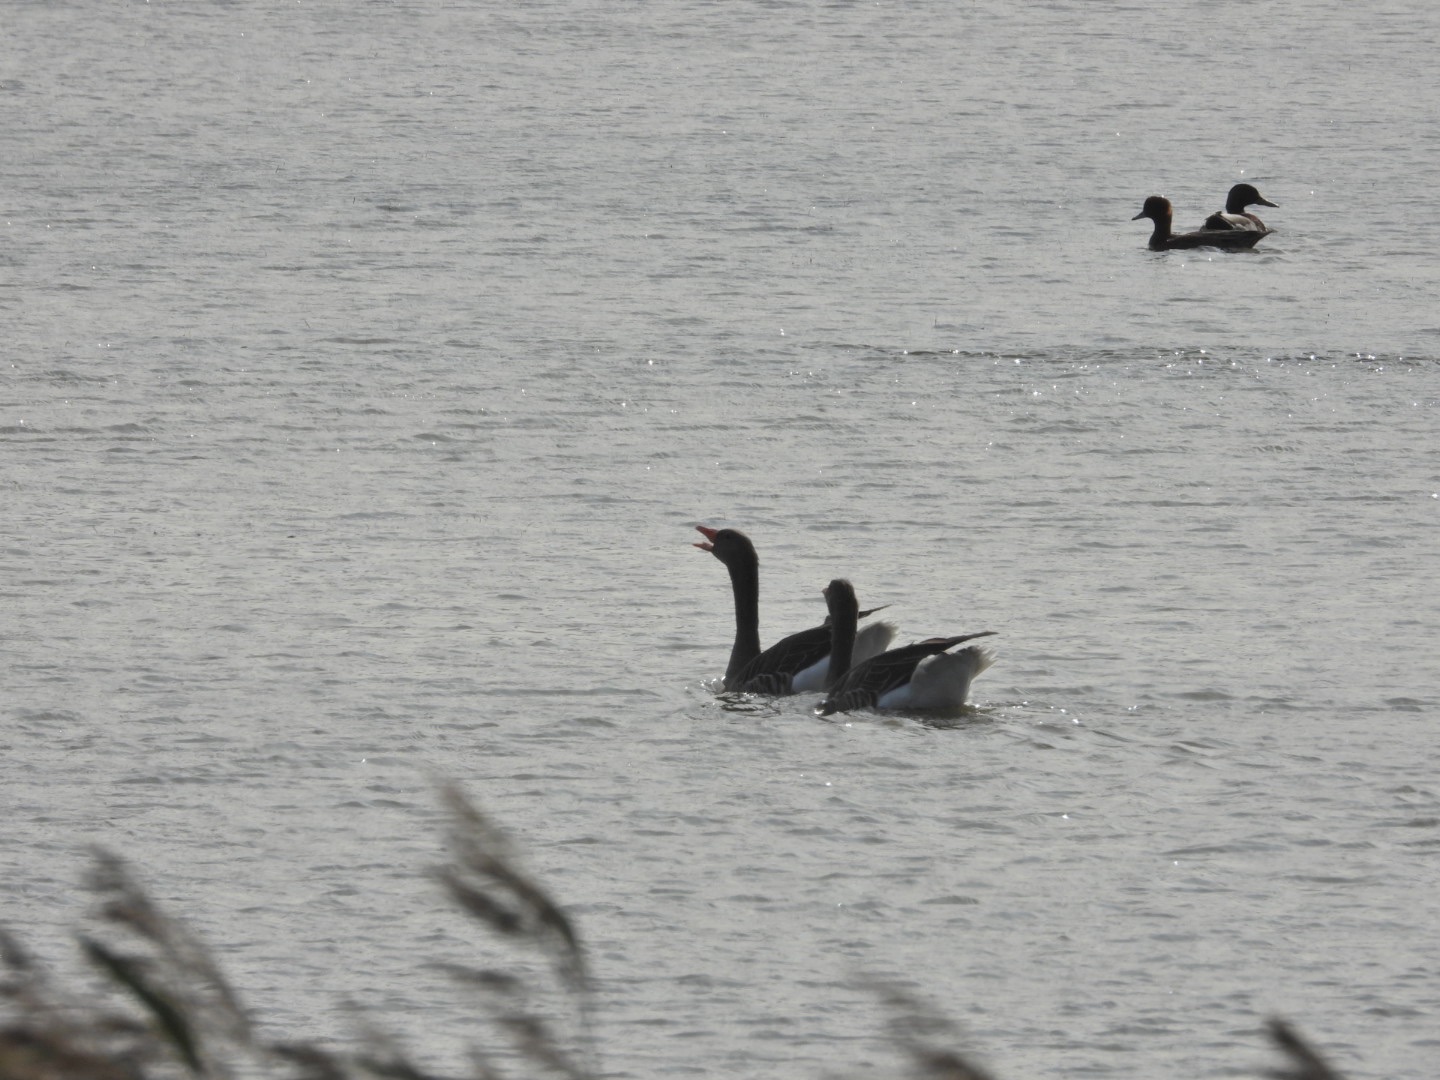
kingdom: Animalia
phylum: Chordata
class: Aves
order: Anseriformes
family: Anatidae
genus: Anser
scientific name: Anser anser
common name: Grågås
